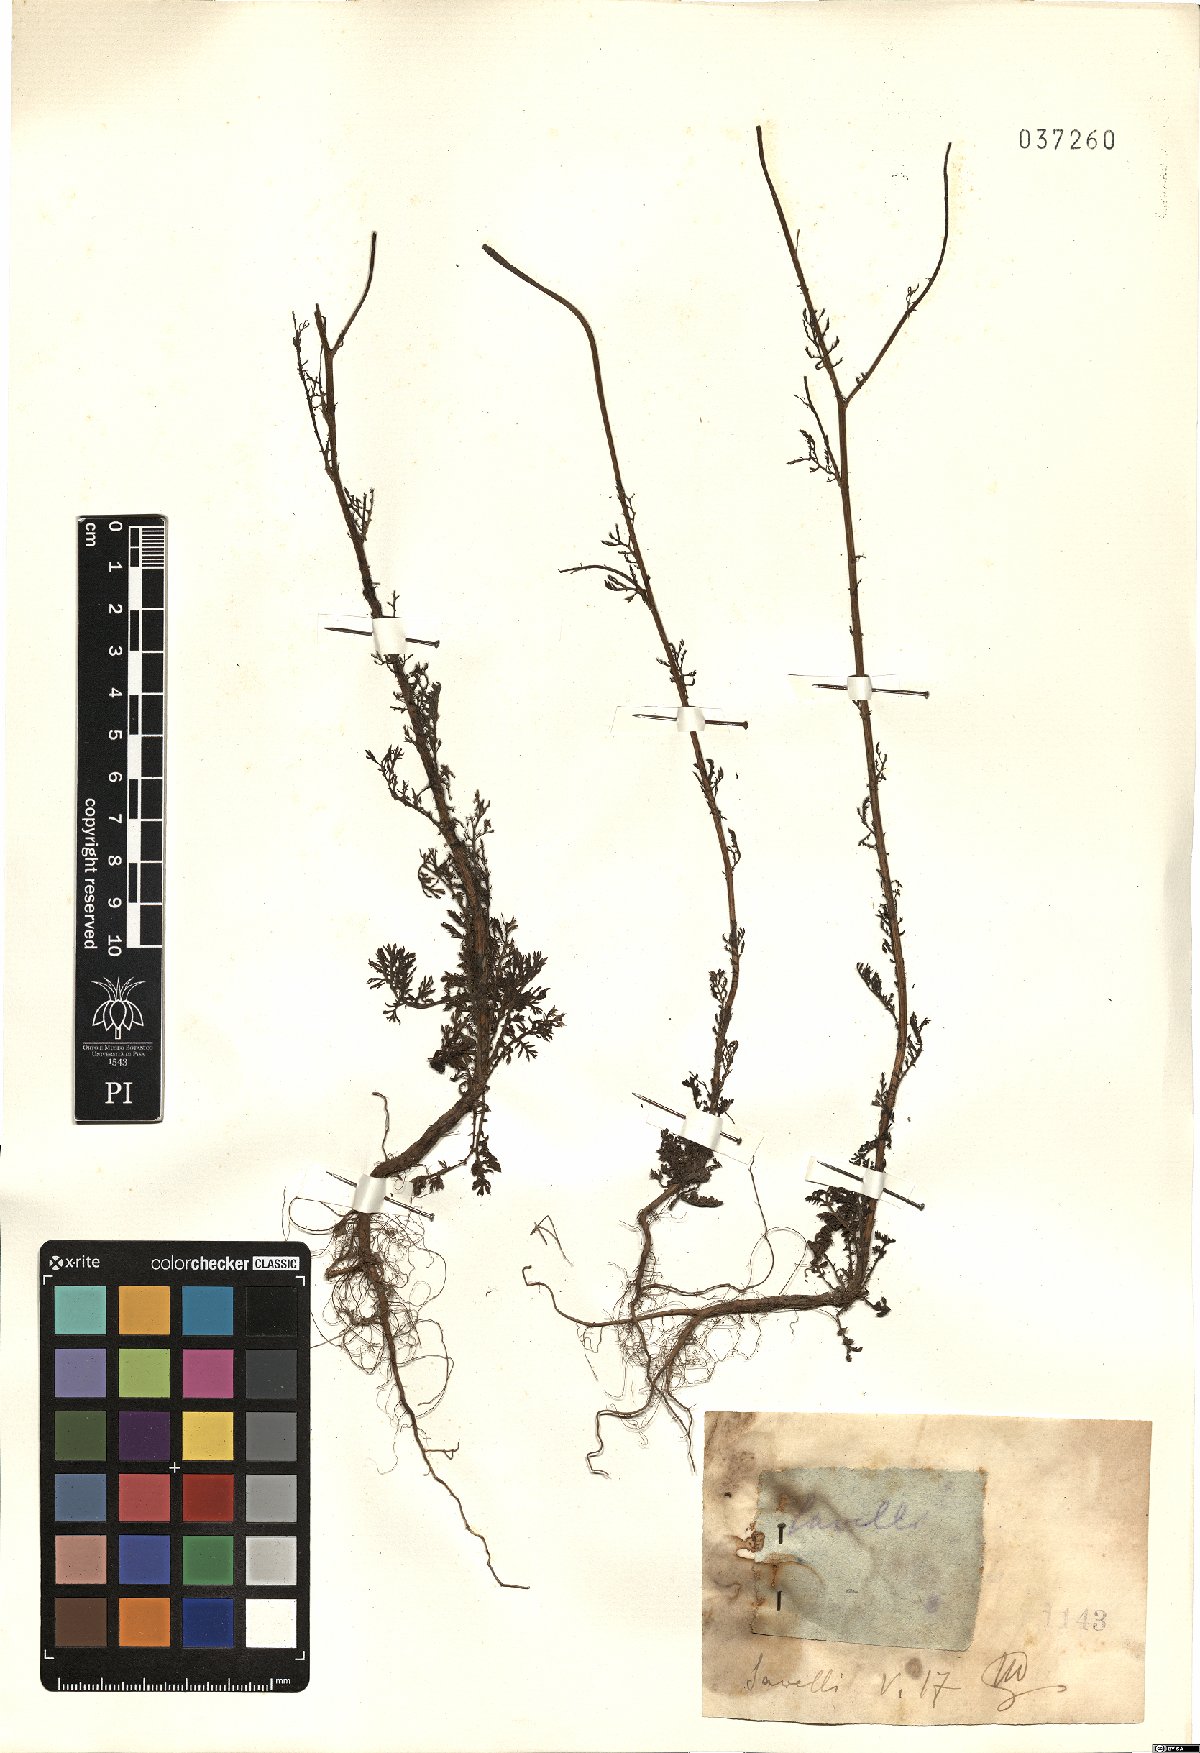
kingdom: Plantae
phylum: Tracheophyta
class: Magnoliopsida
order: Asterales
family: Asteraceae
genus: Anthemis
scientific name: Anthemis
